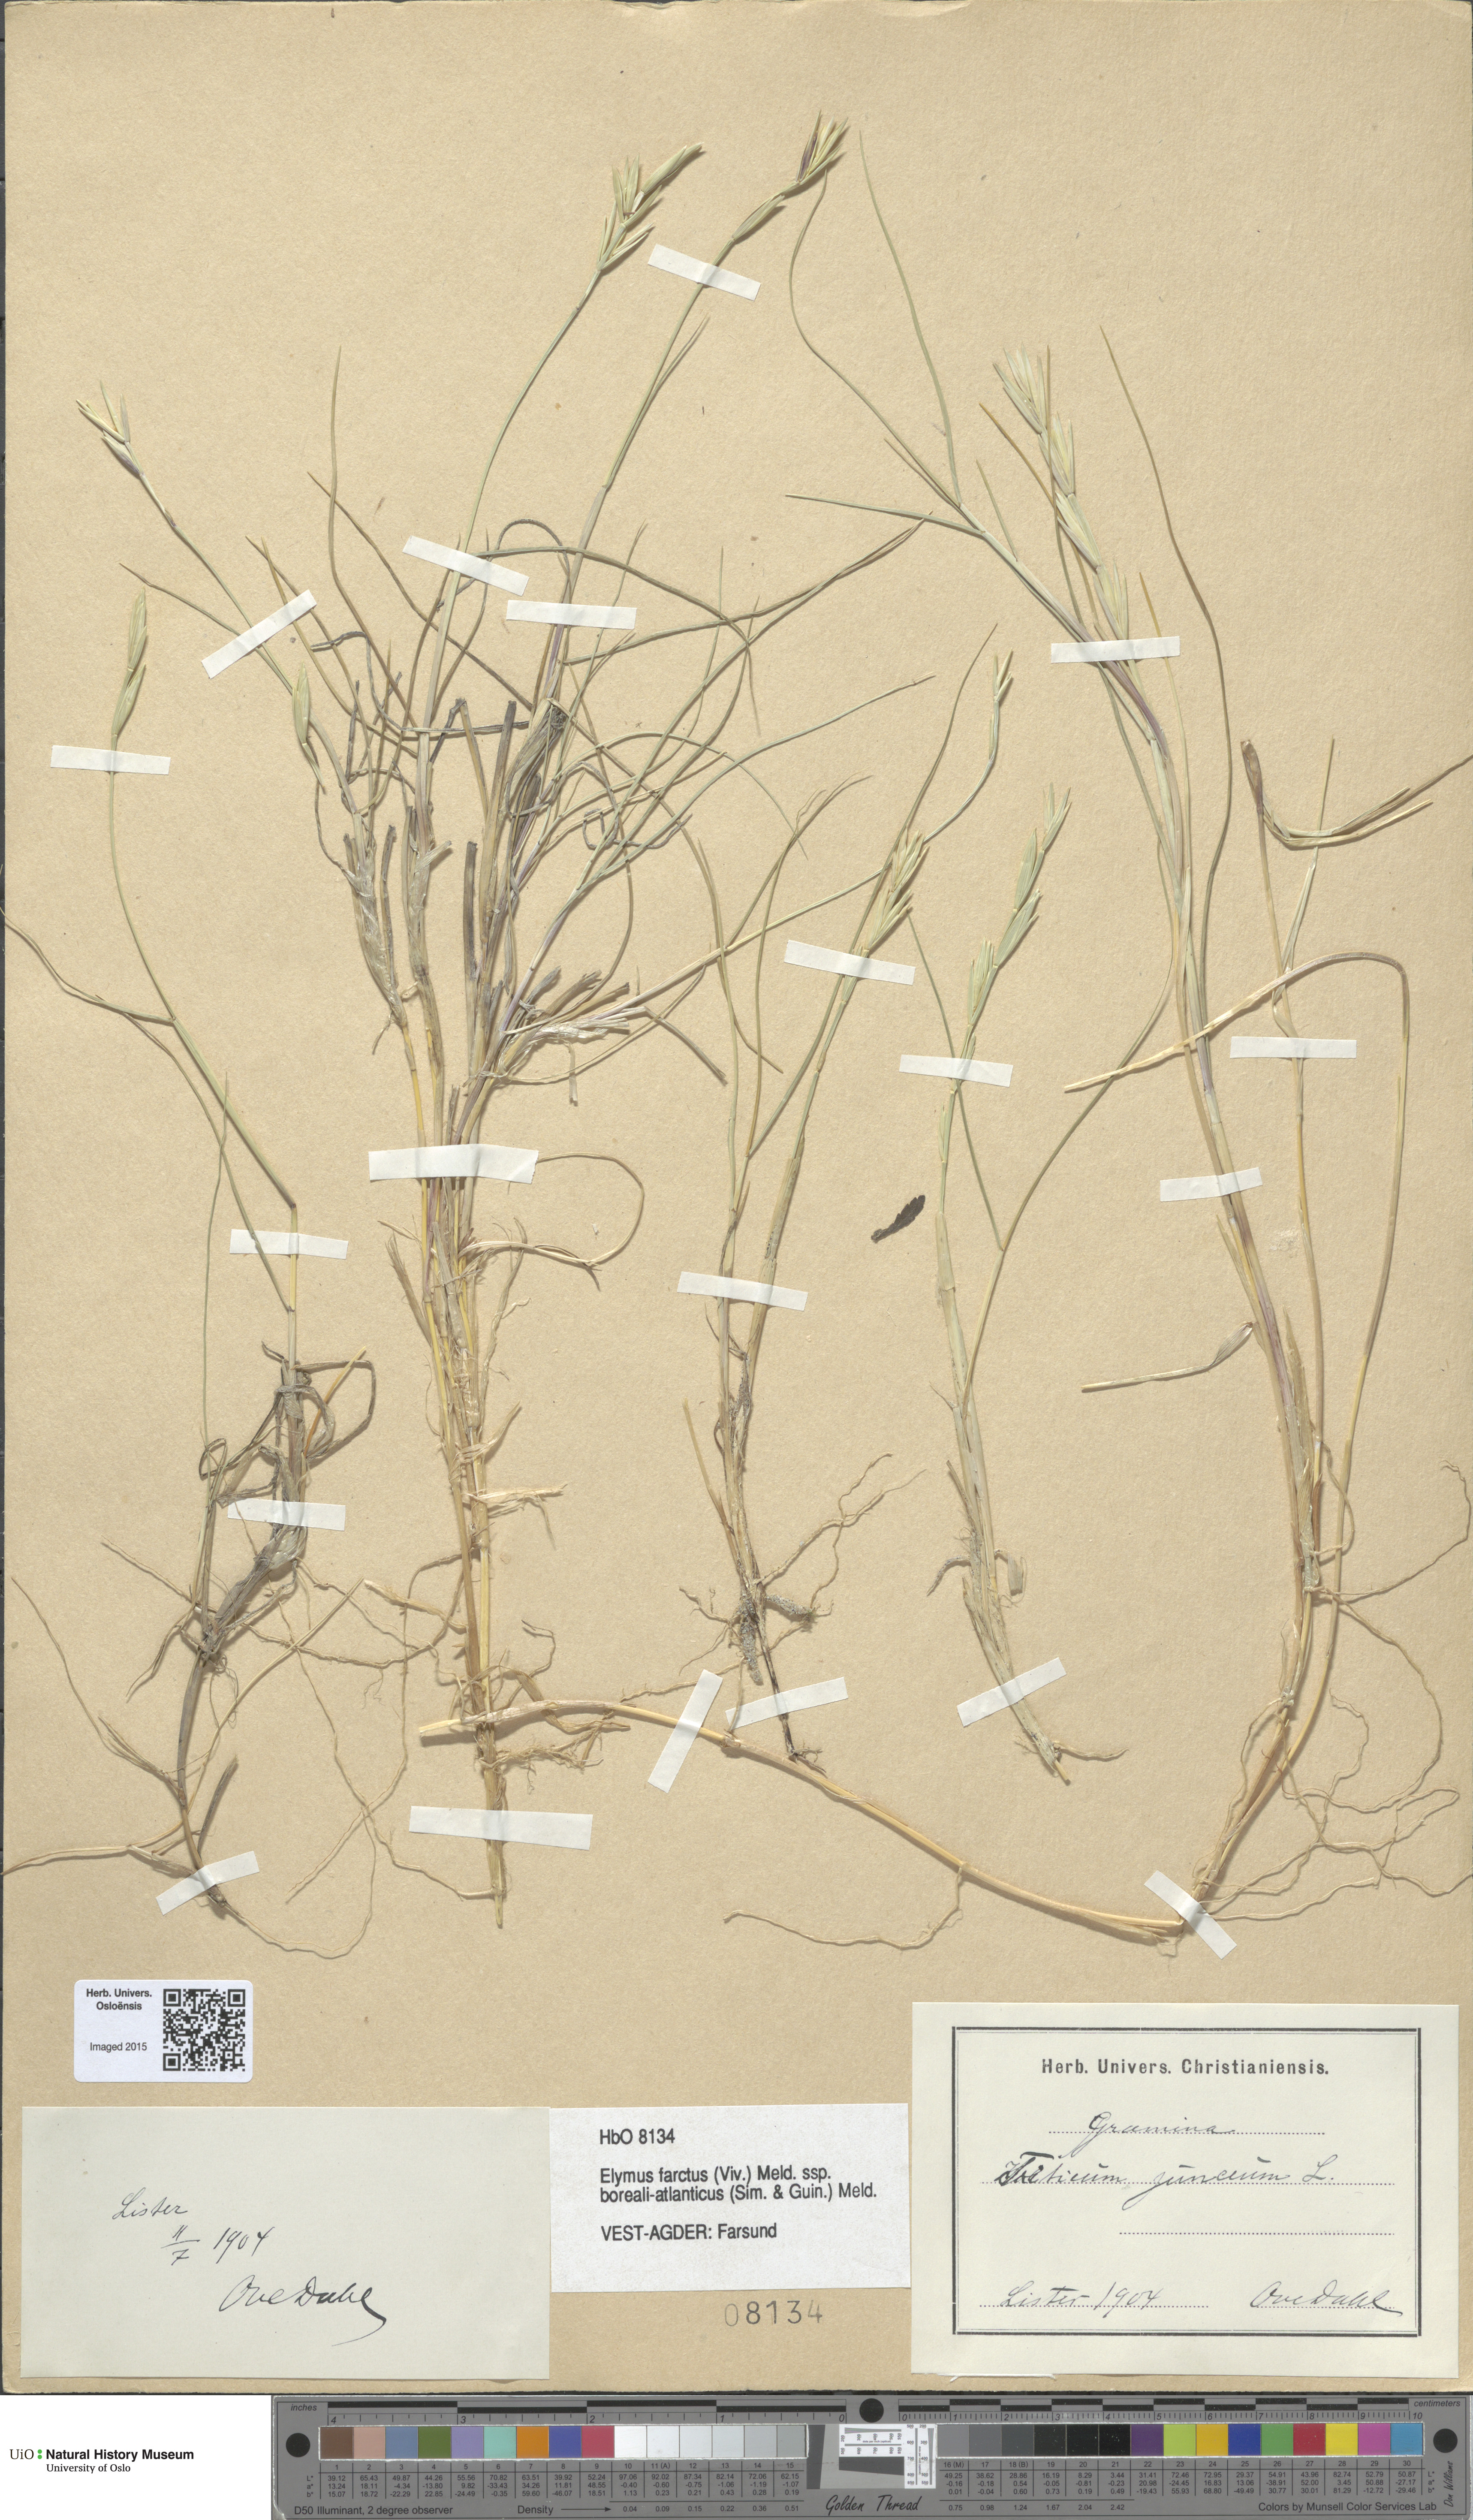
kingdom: Plantae
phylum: Tracheophyta
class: Liliopsida
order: Poales
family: Poaceae
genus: Thinopyrum
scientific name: Thinopyrum junceiforme
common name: Sea couch
